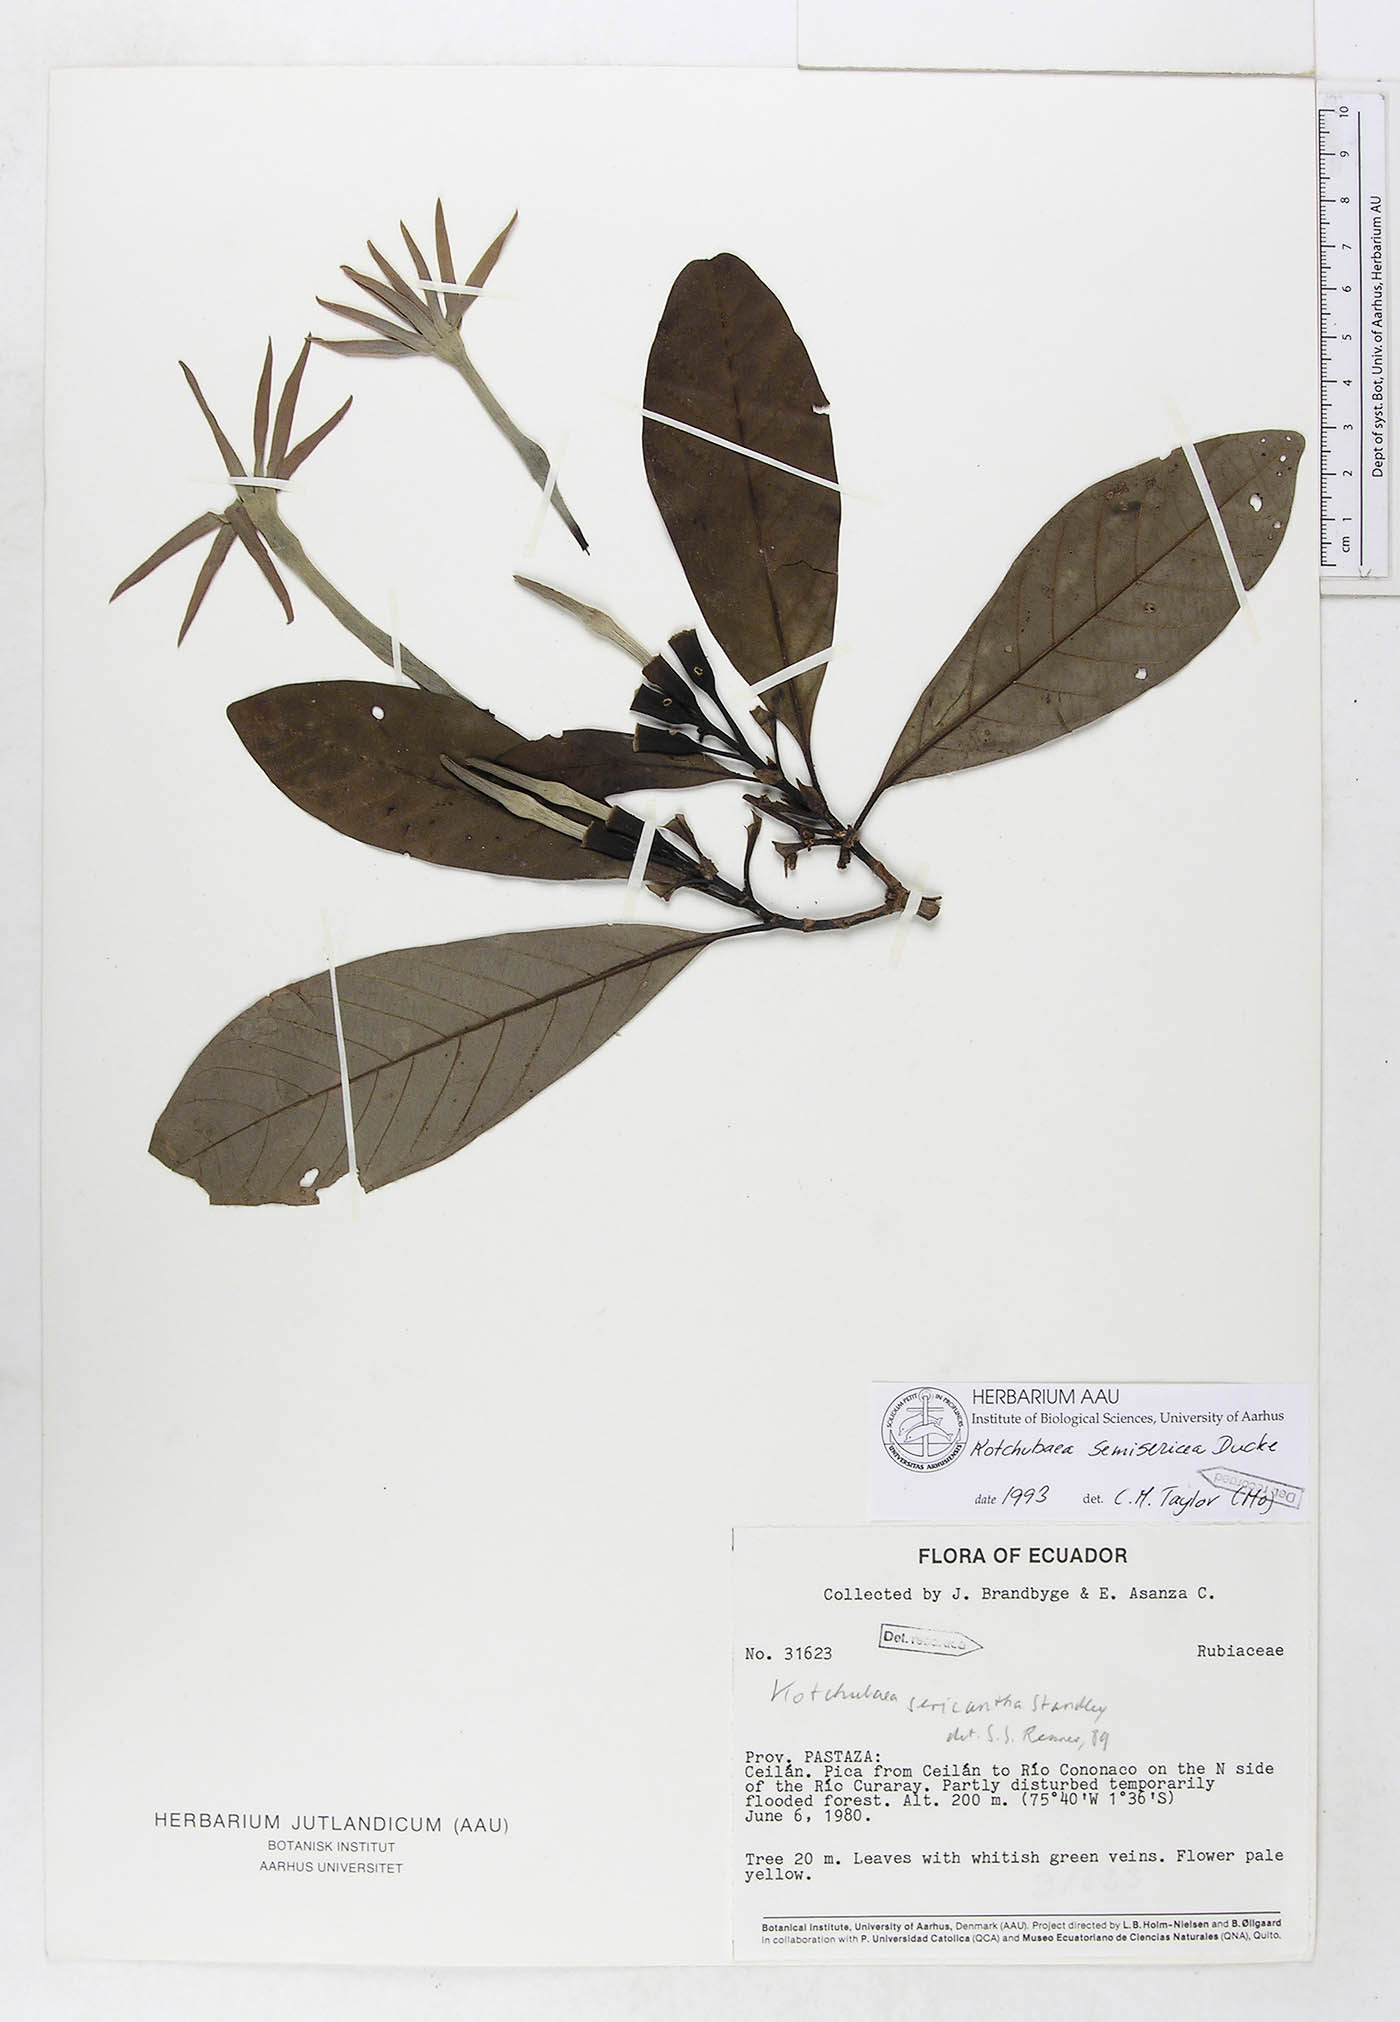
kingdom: Plantae
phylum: Tracheophyta
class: Magnoliopsida
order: Gentianales
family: Rubiaceae
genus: Kutchubaea
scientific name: Kutchubaea semisericea
